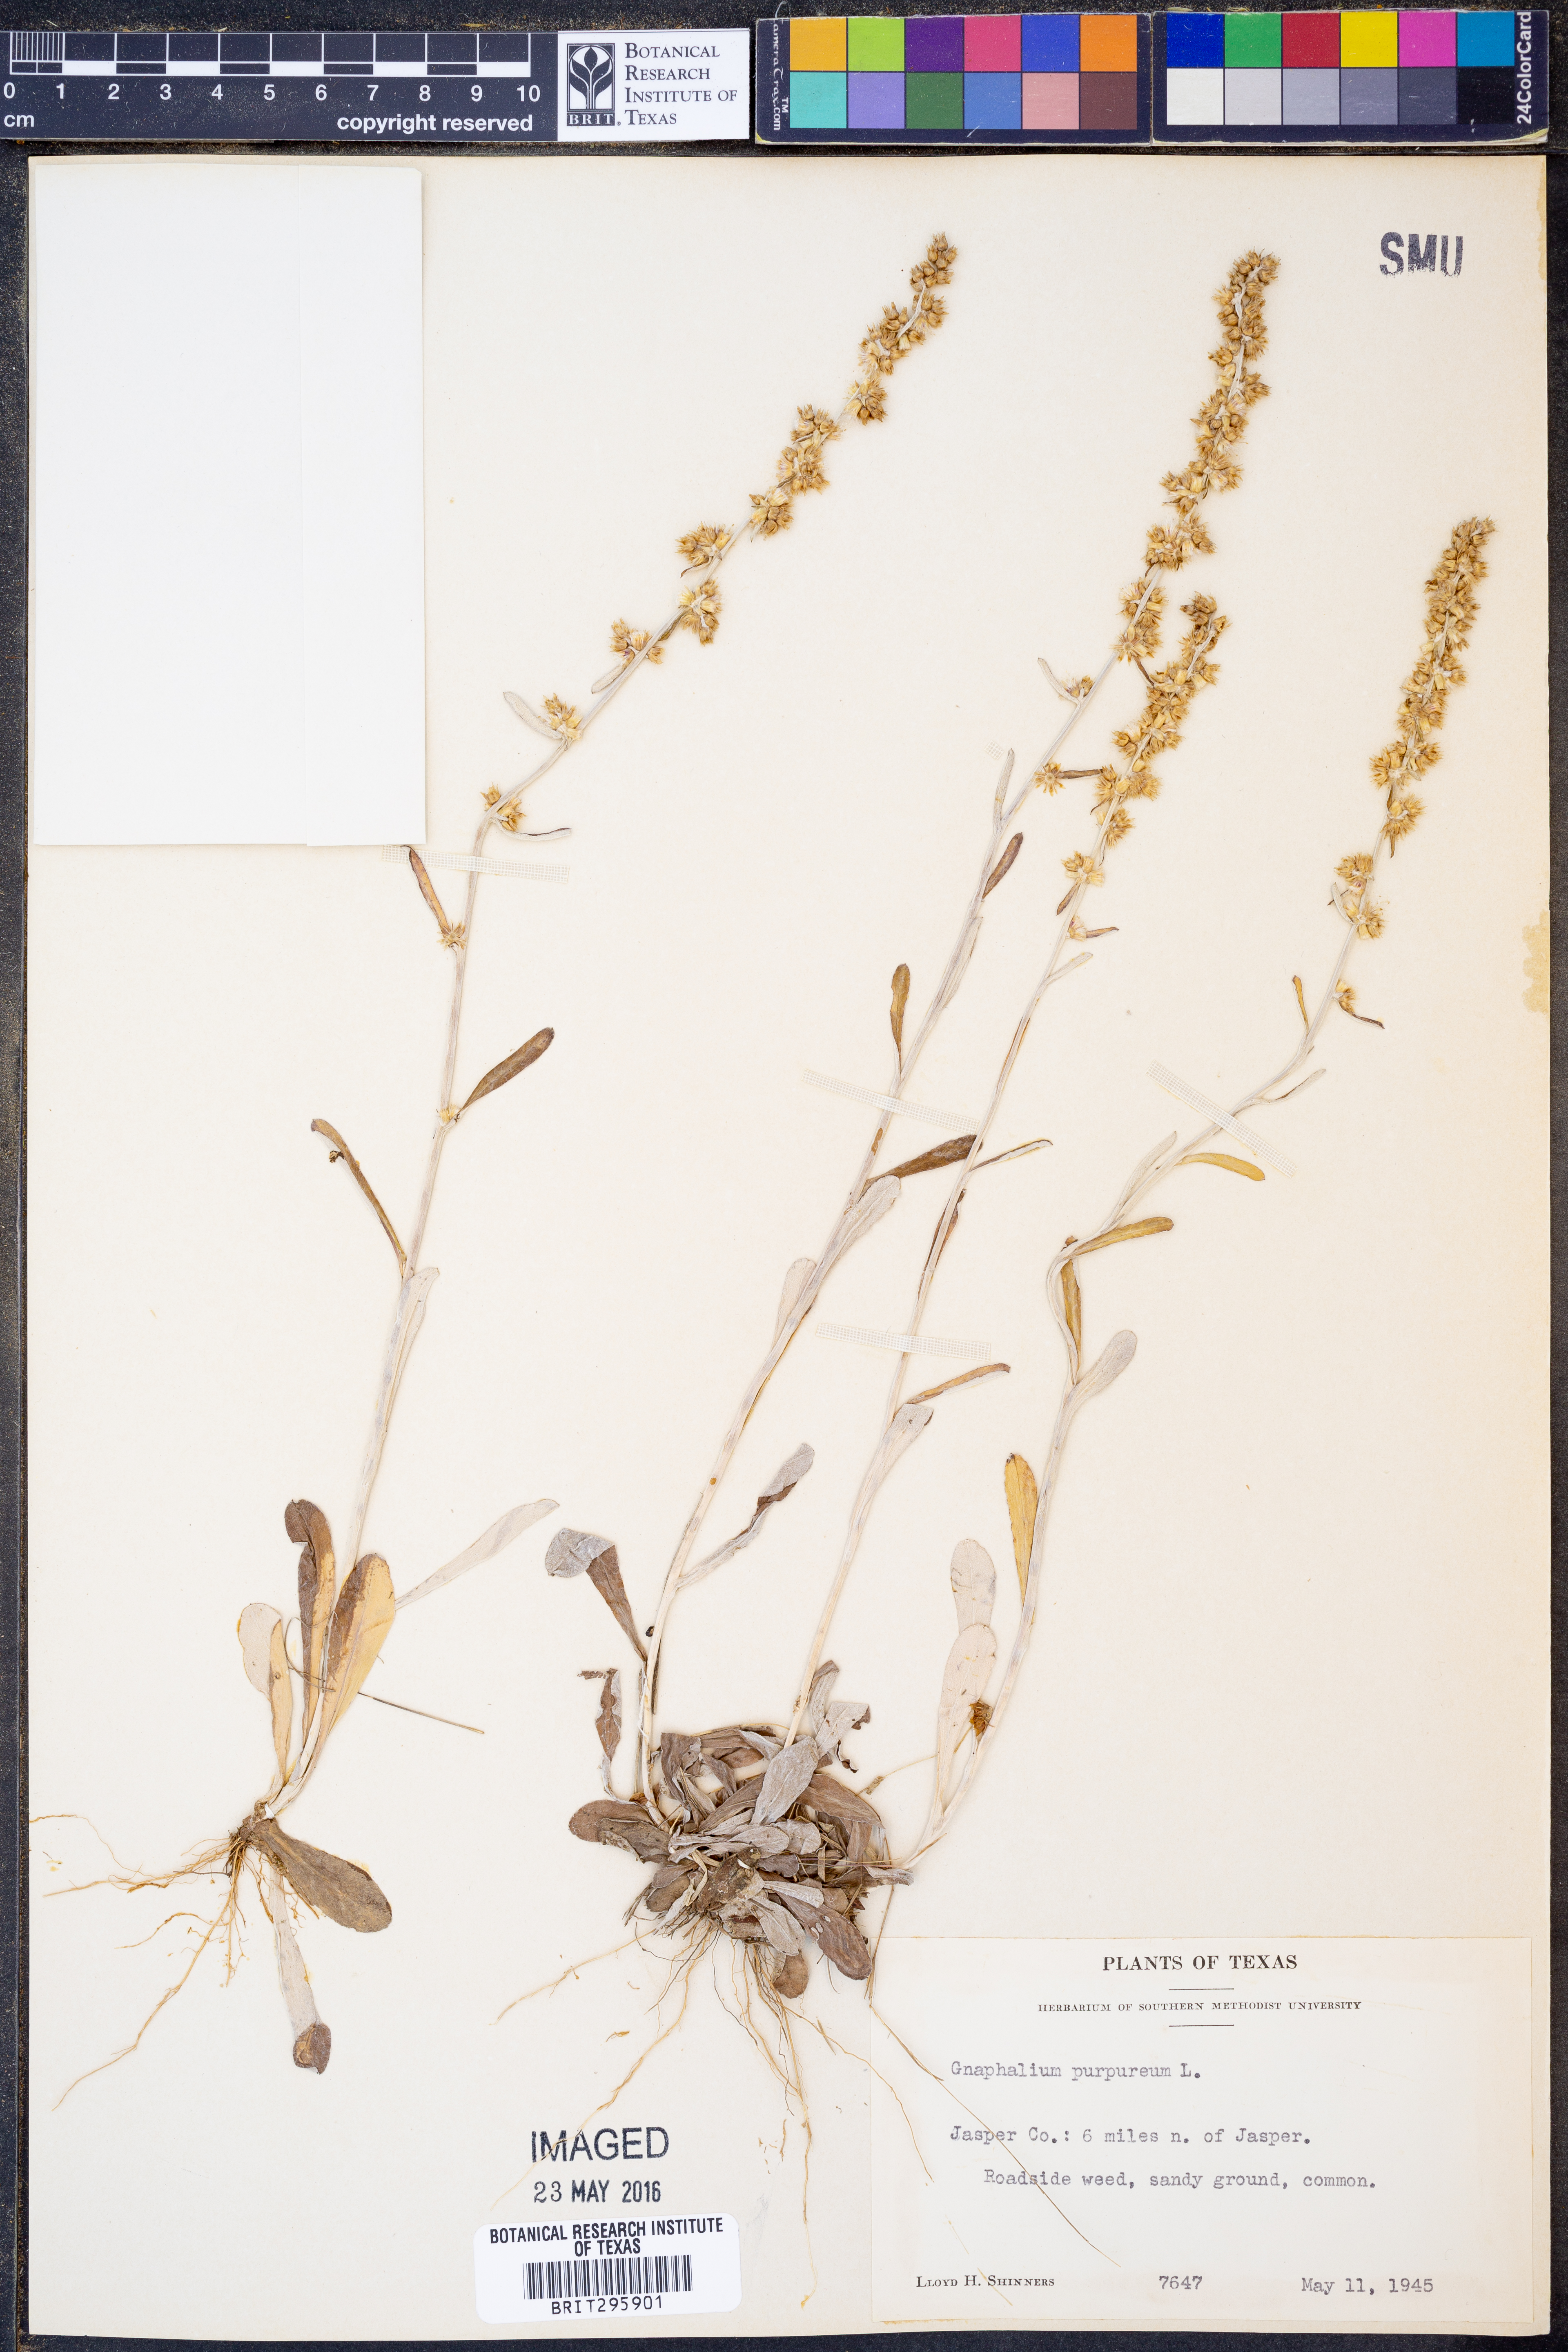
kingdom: Plantae
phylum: Tracheophyta
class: Magnoliopsida
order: Asterales
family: Asteraceae
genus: Gamochaeta
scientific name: Gamochaeta purpurea
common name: Purple cudweed
